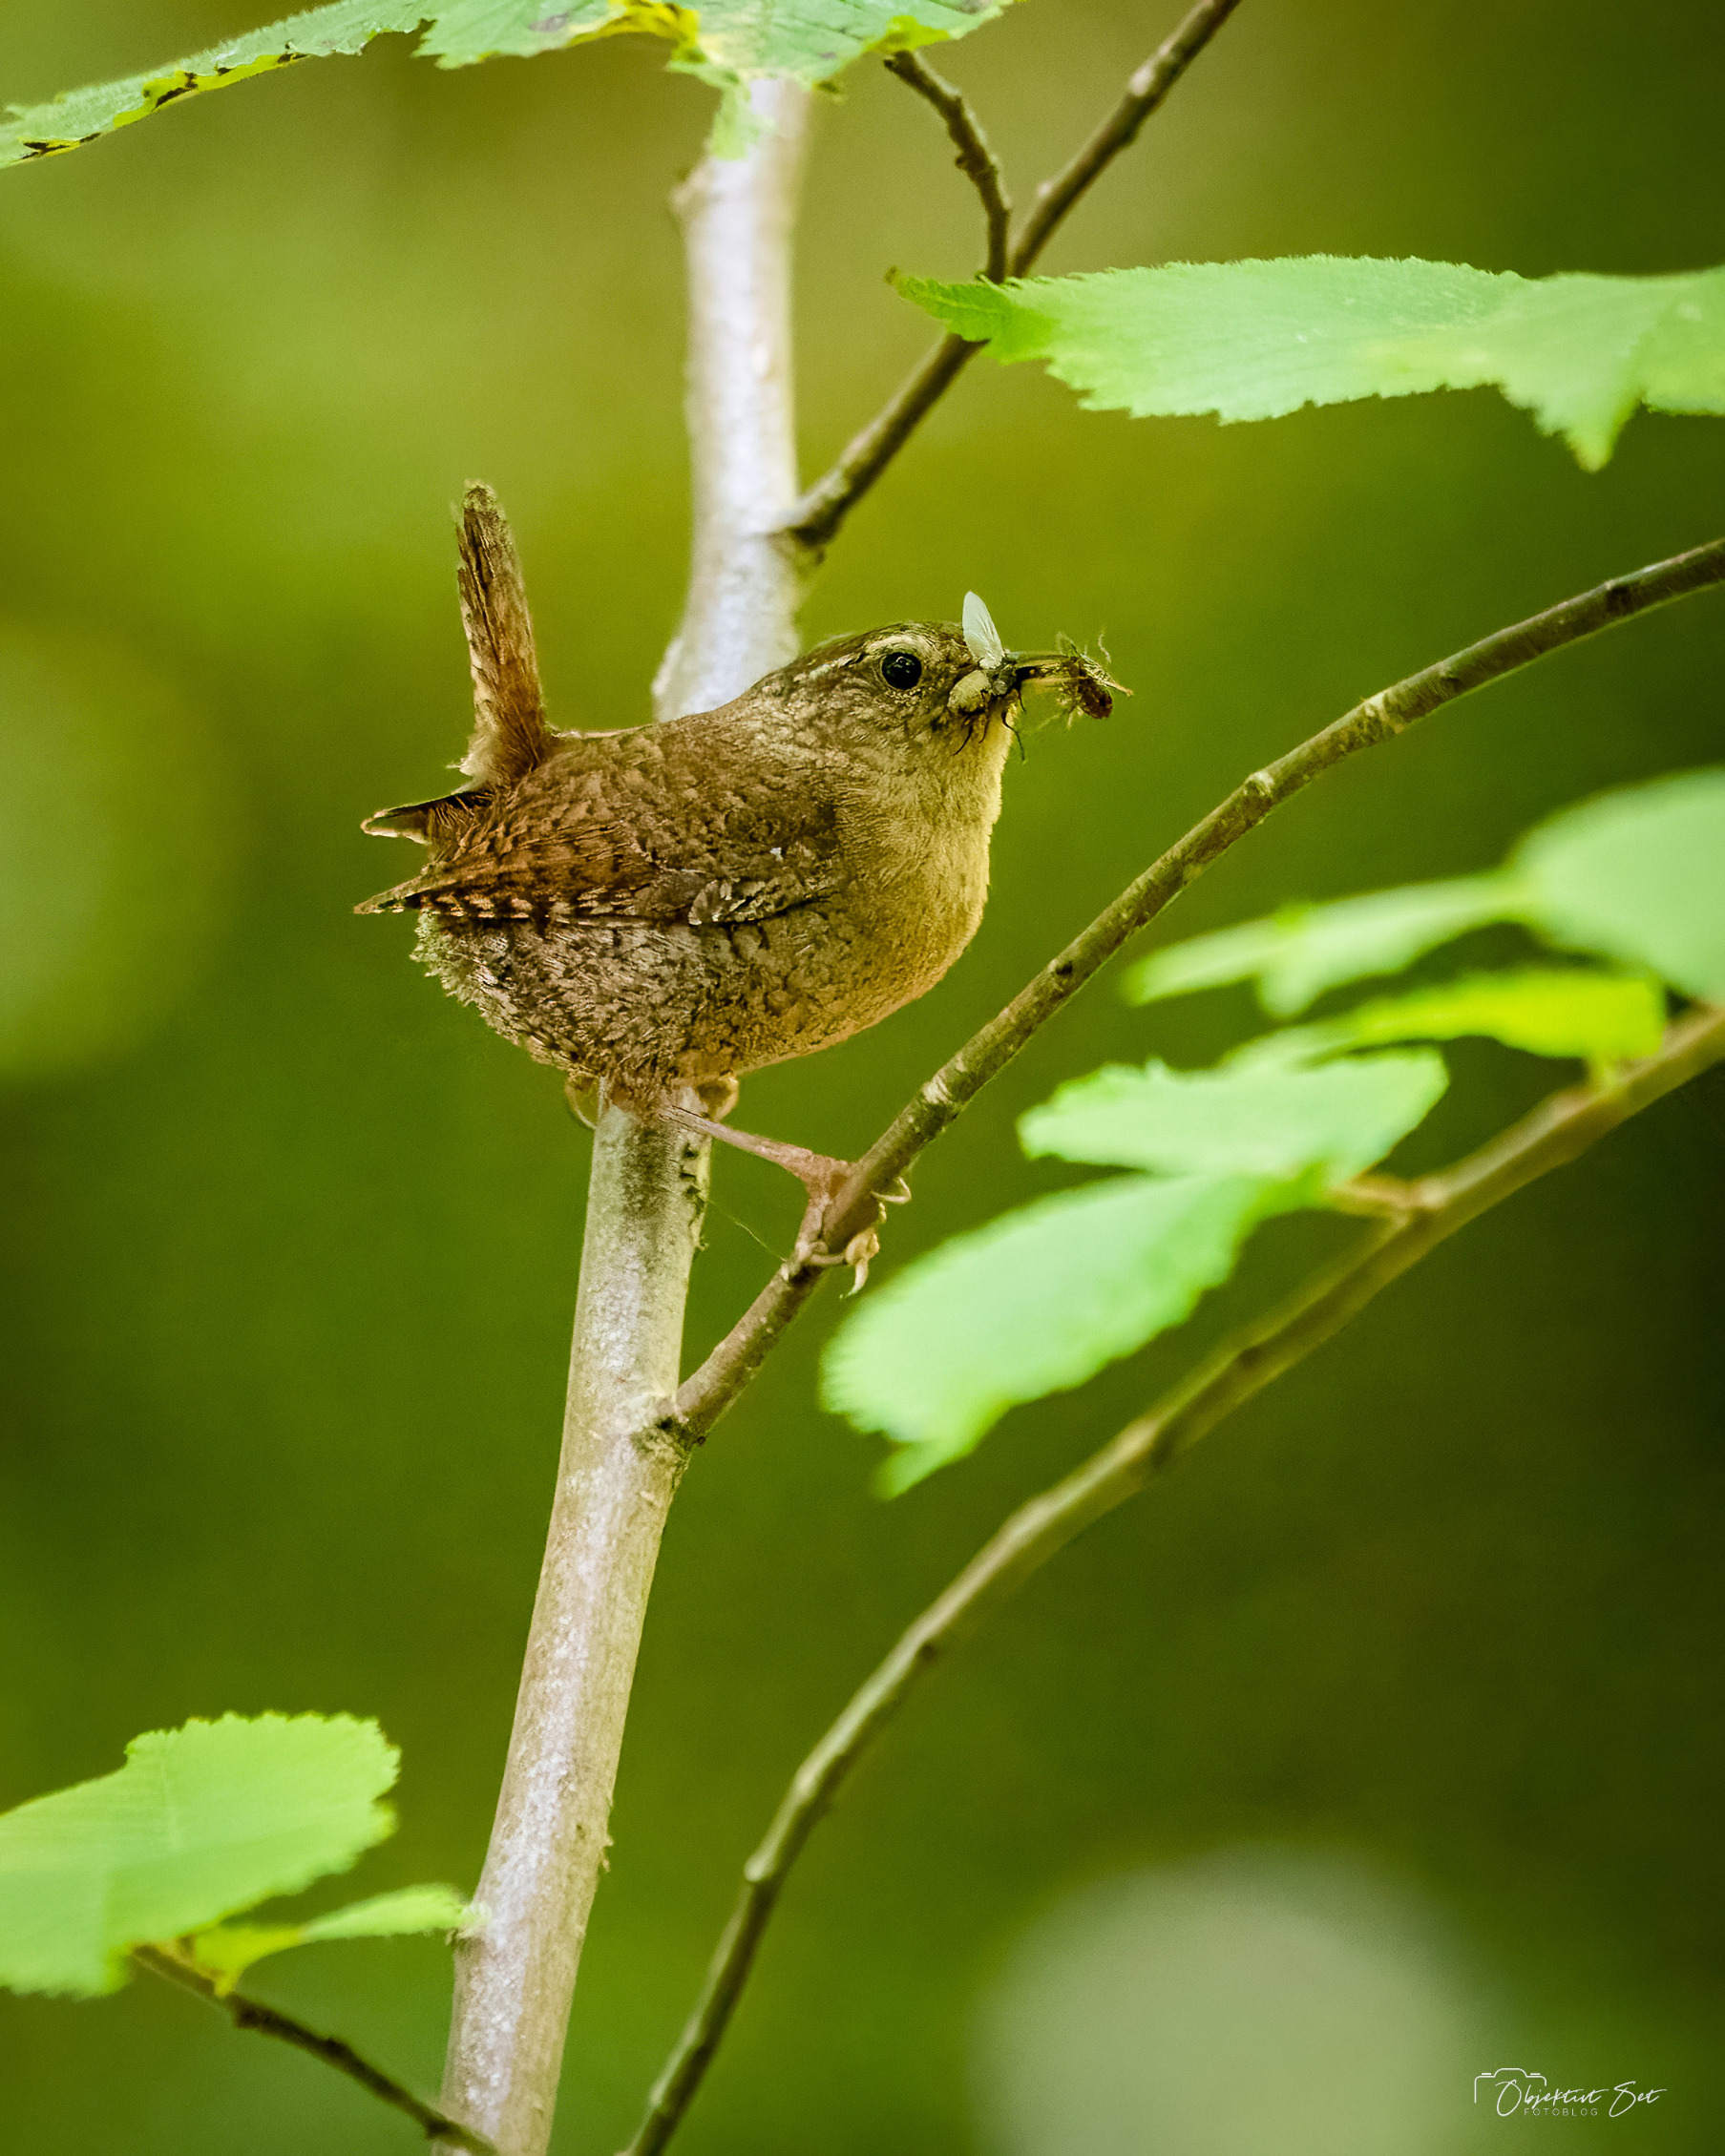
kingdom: Animalia
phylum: Chordata
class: Aves
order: Passeriformes
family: Troglodytidae
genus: Troglodytes
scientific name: Troglodytes troglodytes
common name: Gærdesmutte
